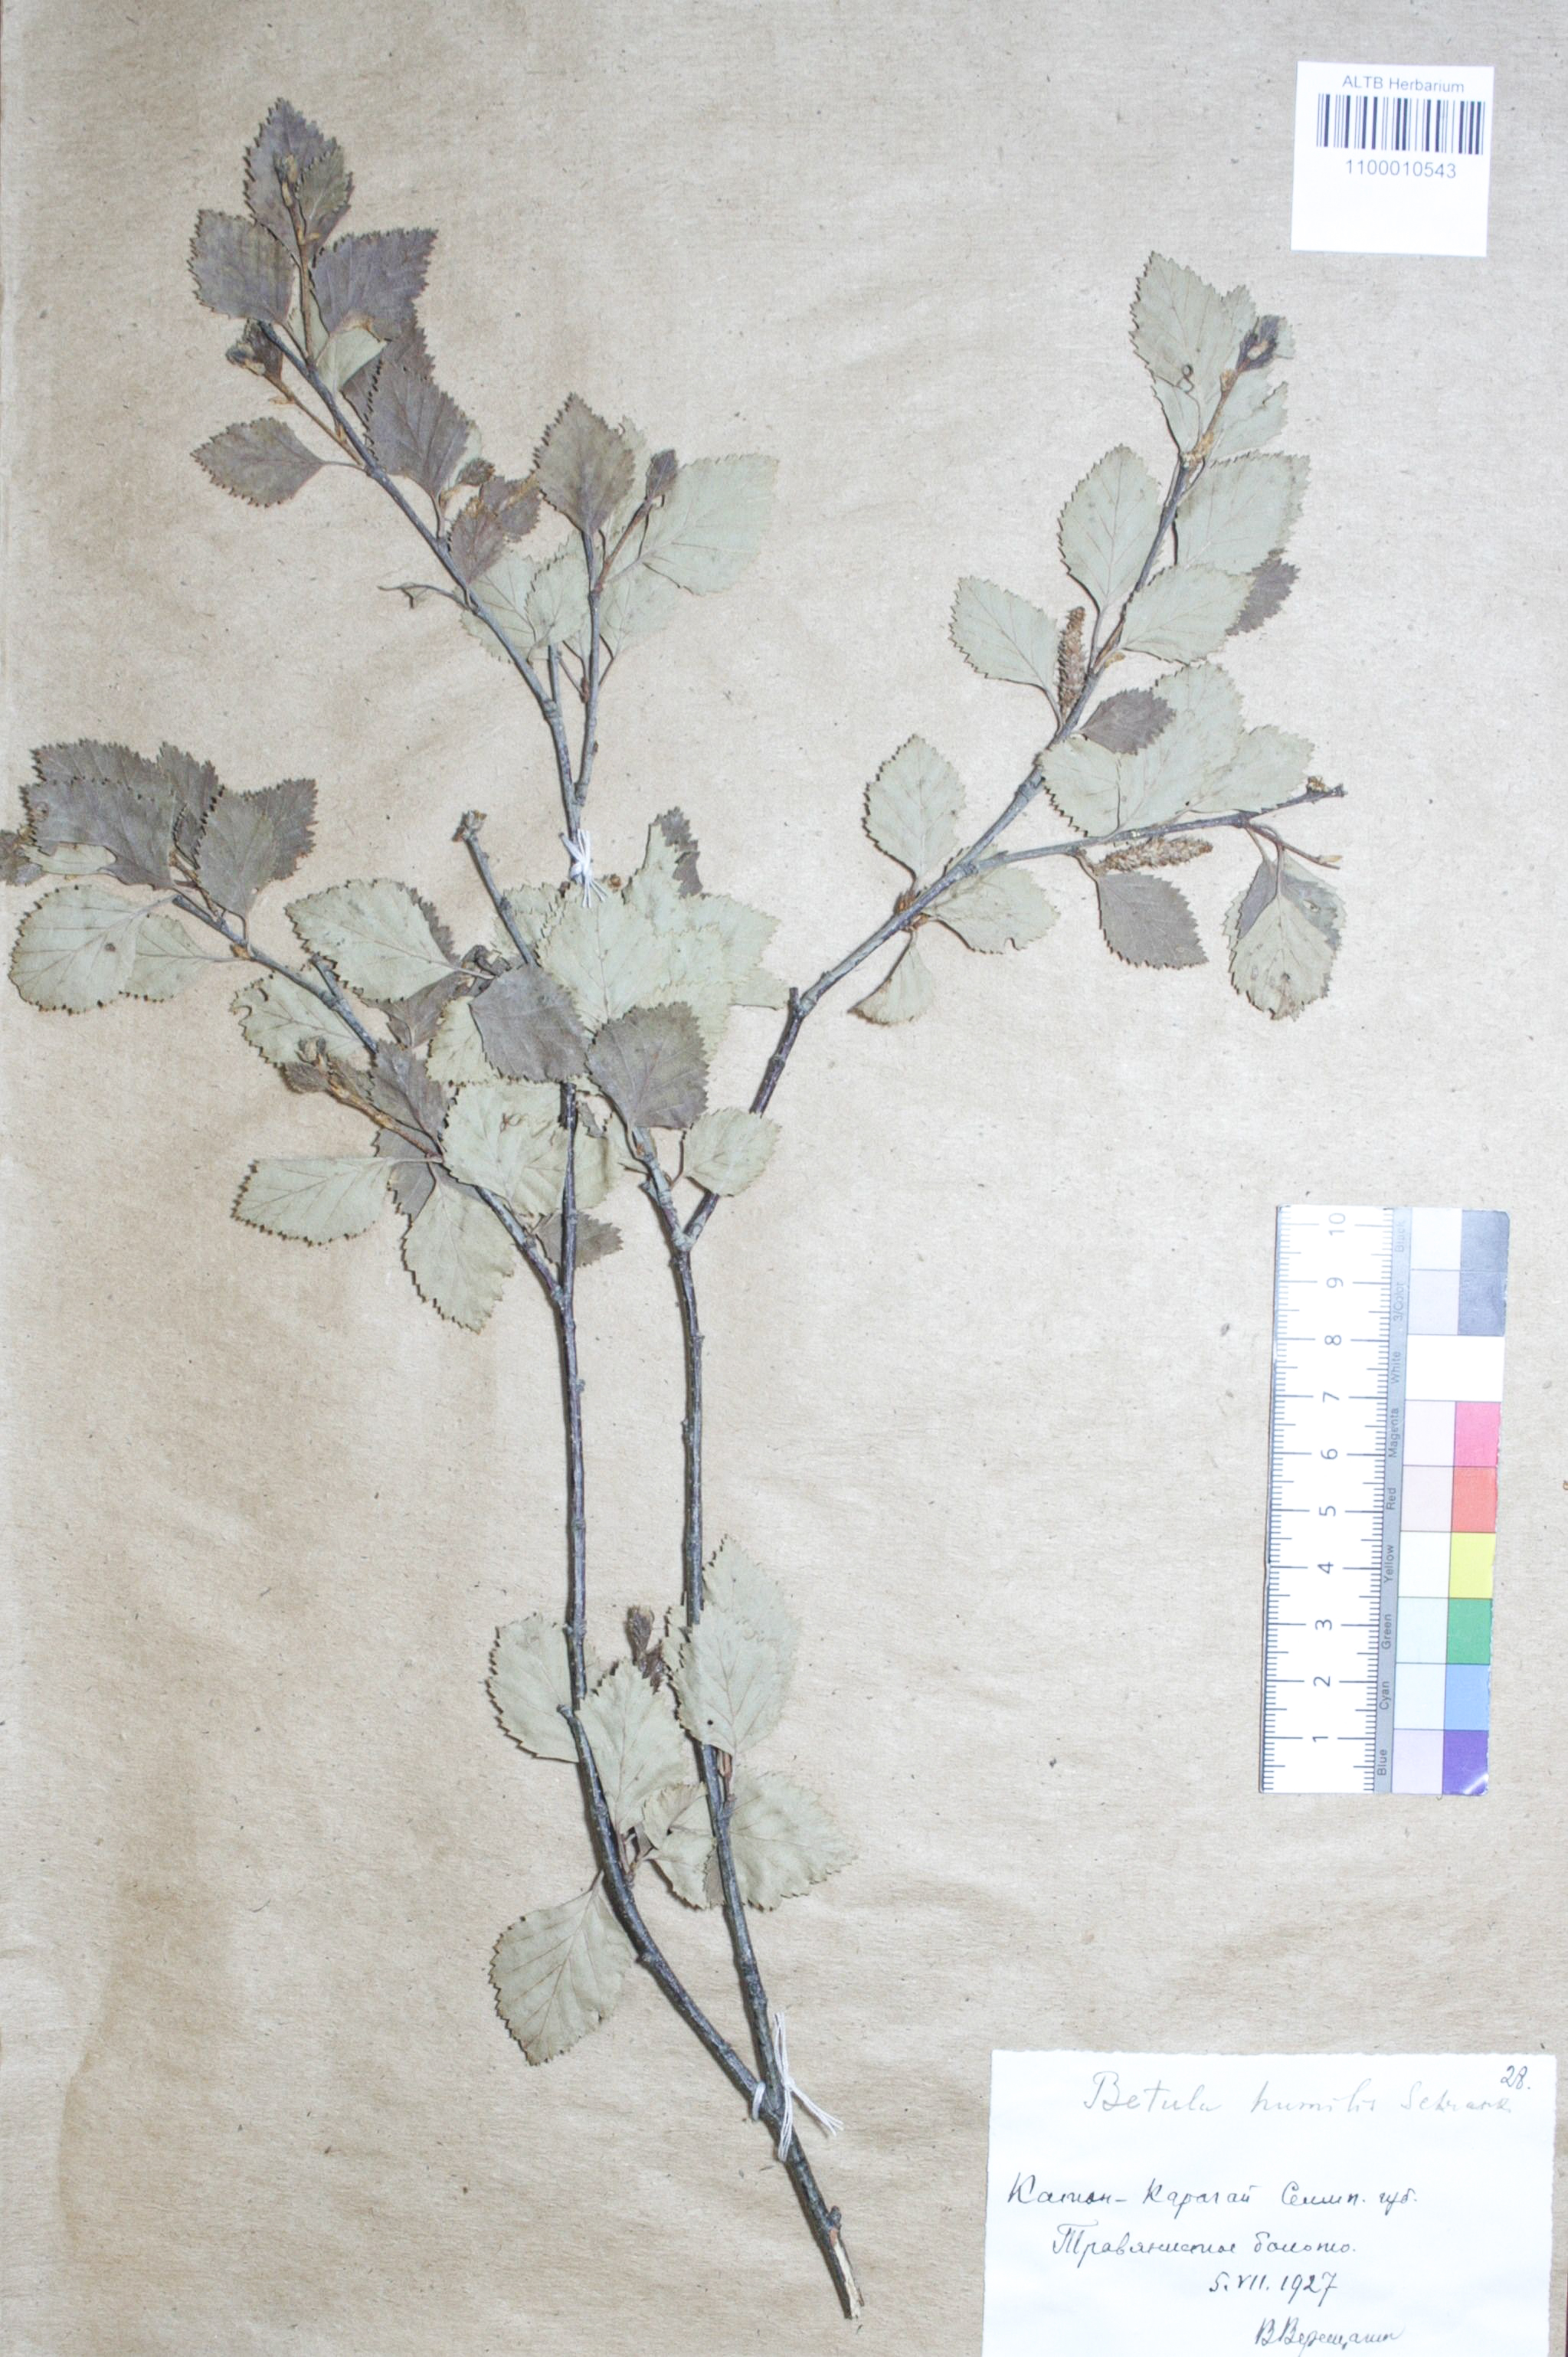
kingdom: Plantae
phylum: Tracheophyta
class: Magnoliopsida
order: Fagales
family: Betulaceae
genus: Betula
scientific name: Betula humilis
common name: Shrubby birch
